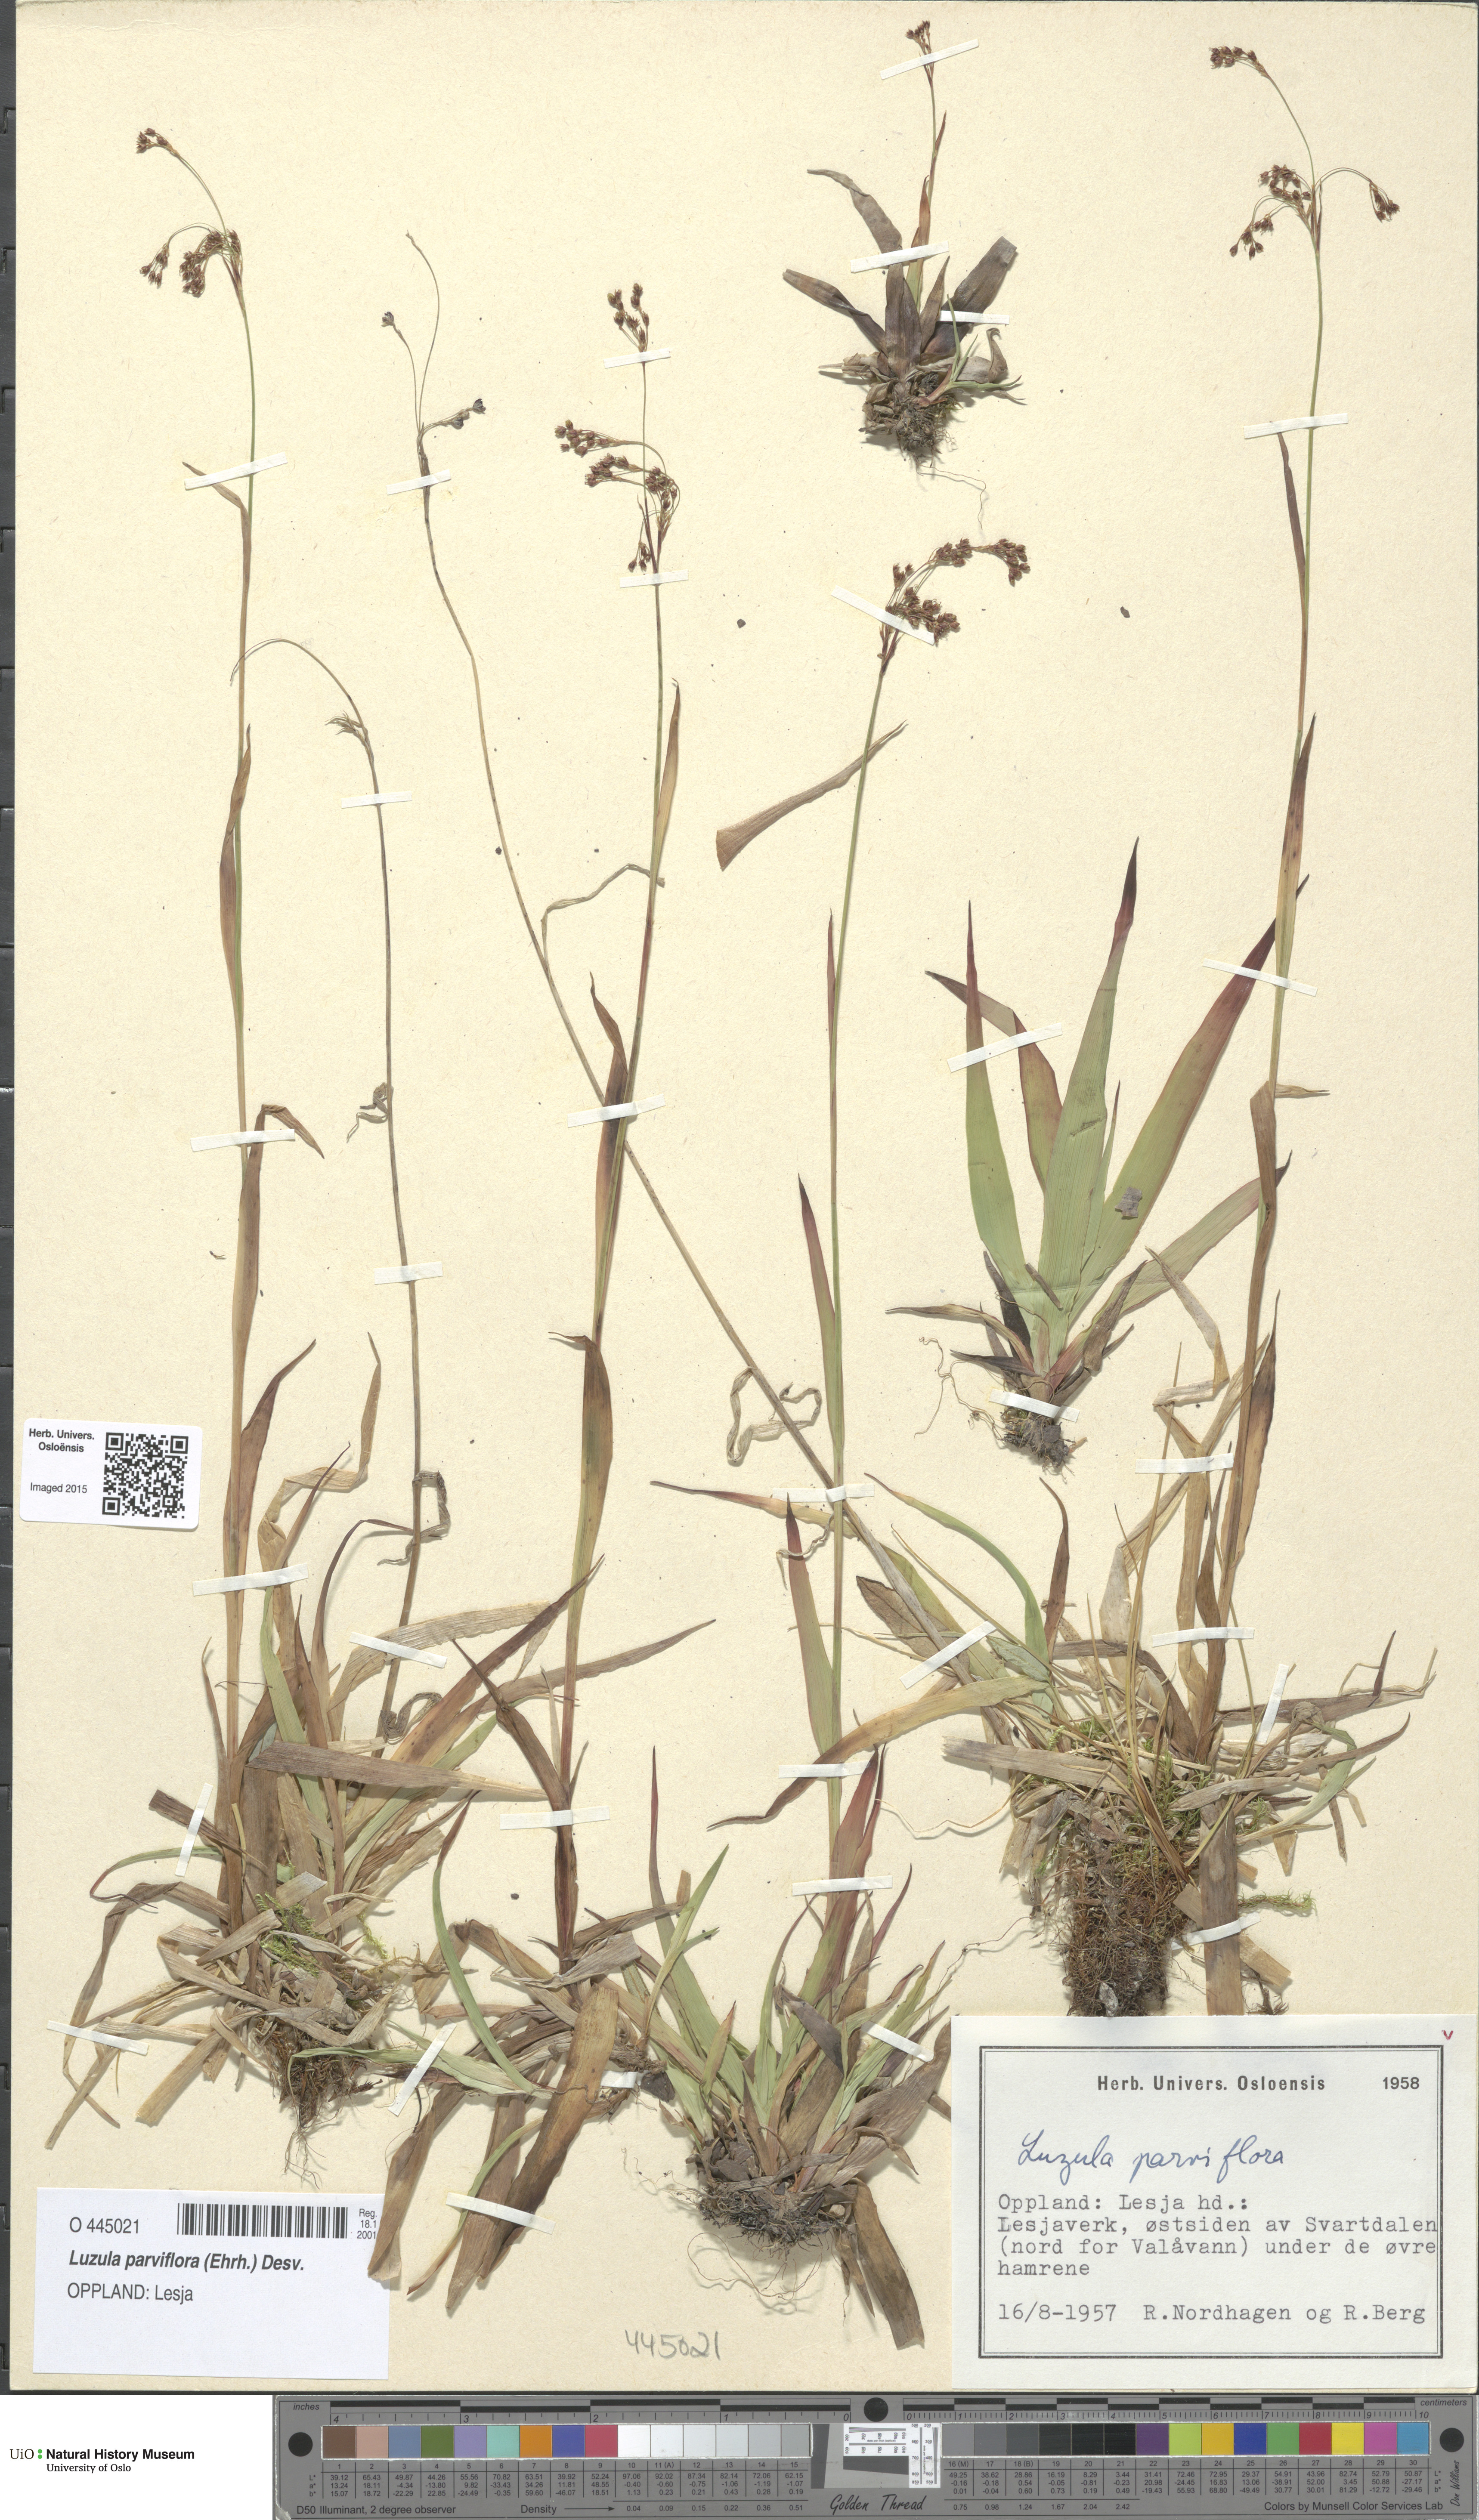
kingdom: Plantae
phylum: Tracheophyta
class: Liliopsida
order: Poales
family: Juncaceae
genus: Luzula
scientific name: Luzula parviflora
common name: Millet woodrush
